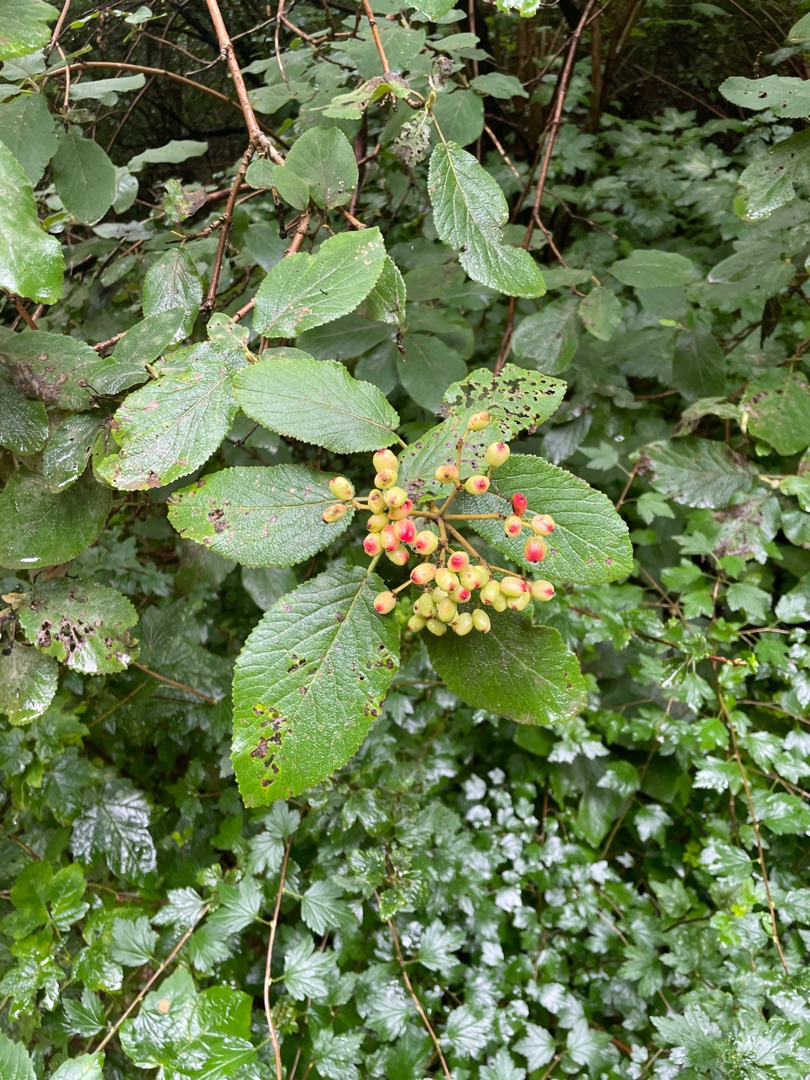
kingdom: Plantae
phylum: Tracheophyta
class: Magnoliopsida
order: Dipsacales
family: Viburnaceae
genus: Viburnum
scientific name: Viburnum lantana
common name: Pibe-kvalkved
